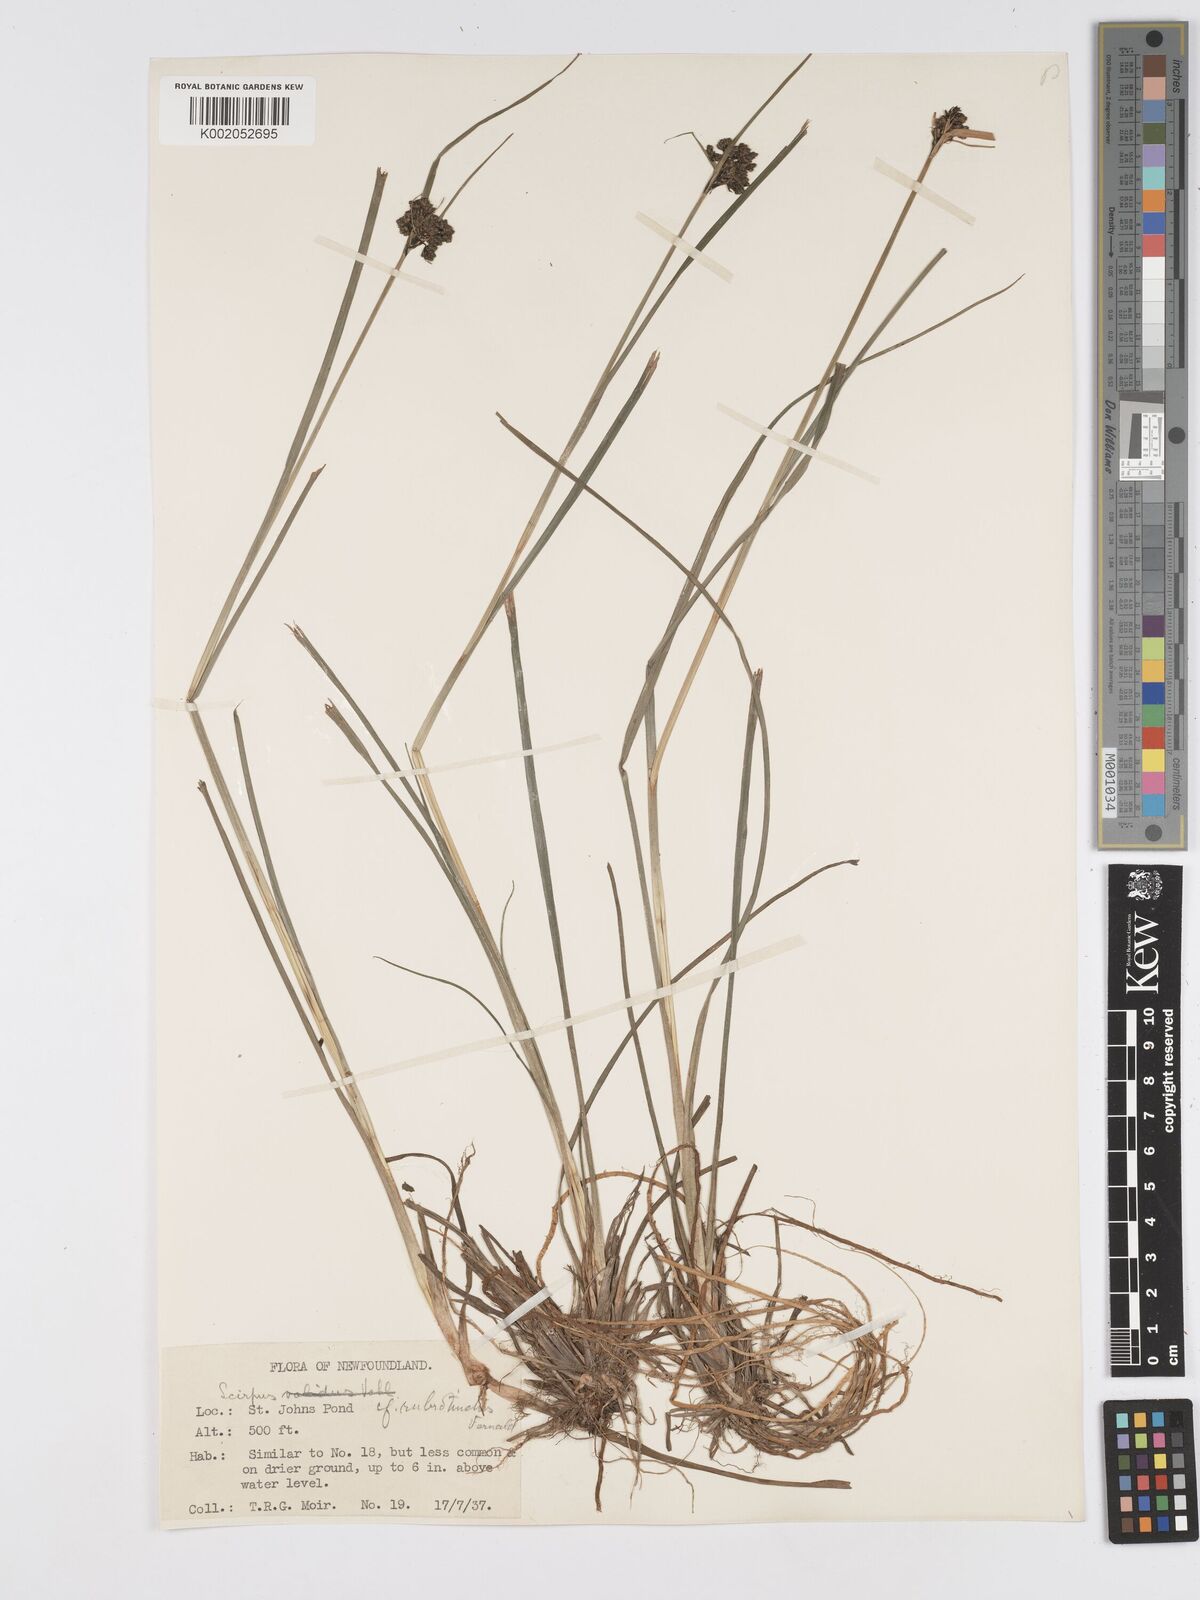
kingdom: Plantae
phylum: Tracheophyta
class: Liliopsida
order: Poales
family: Cyperaceae
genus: Scirpus
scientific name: Scirpus microcarpus
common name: Panicled bulrush
